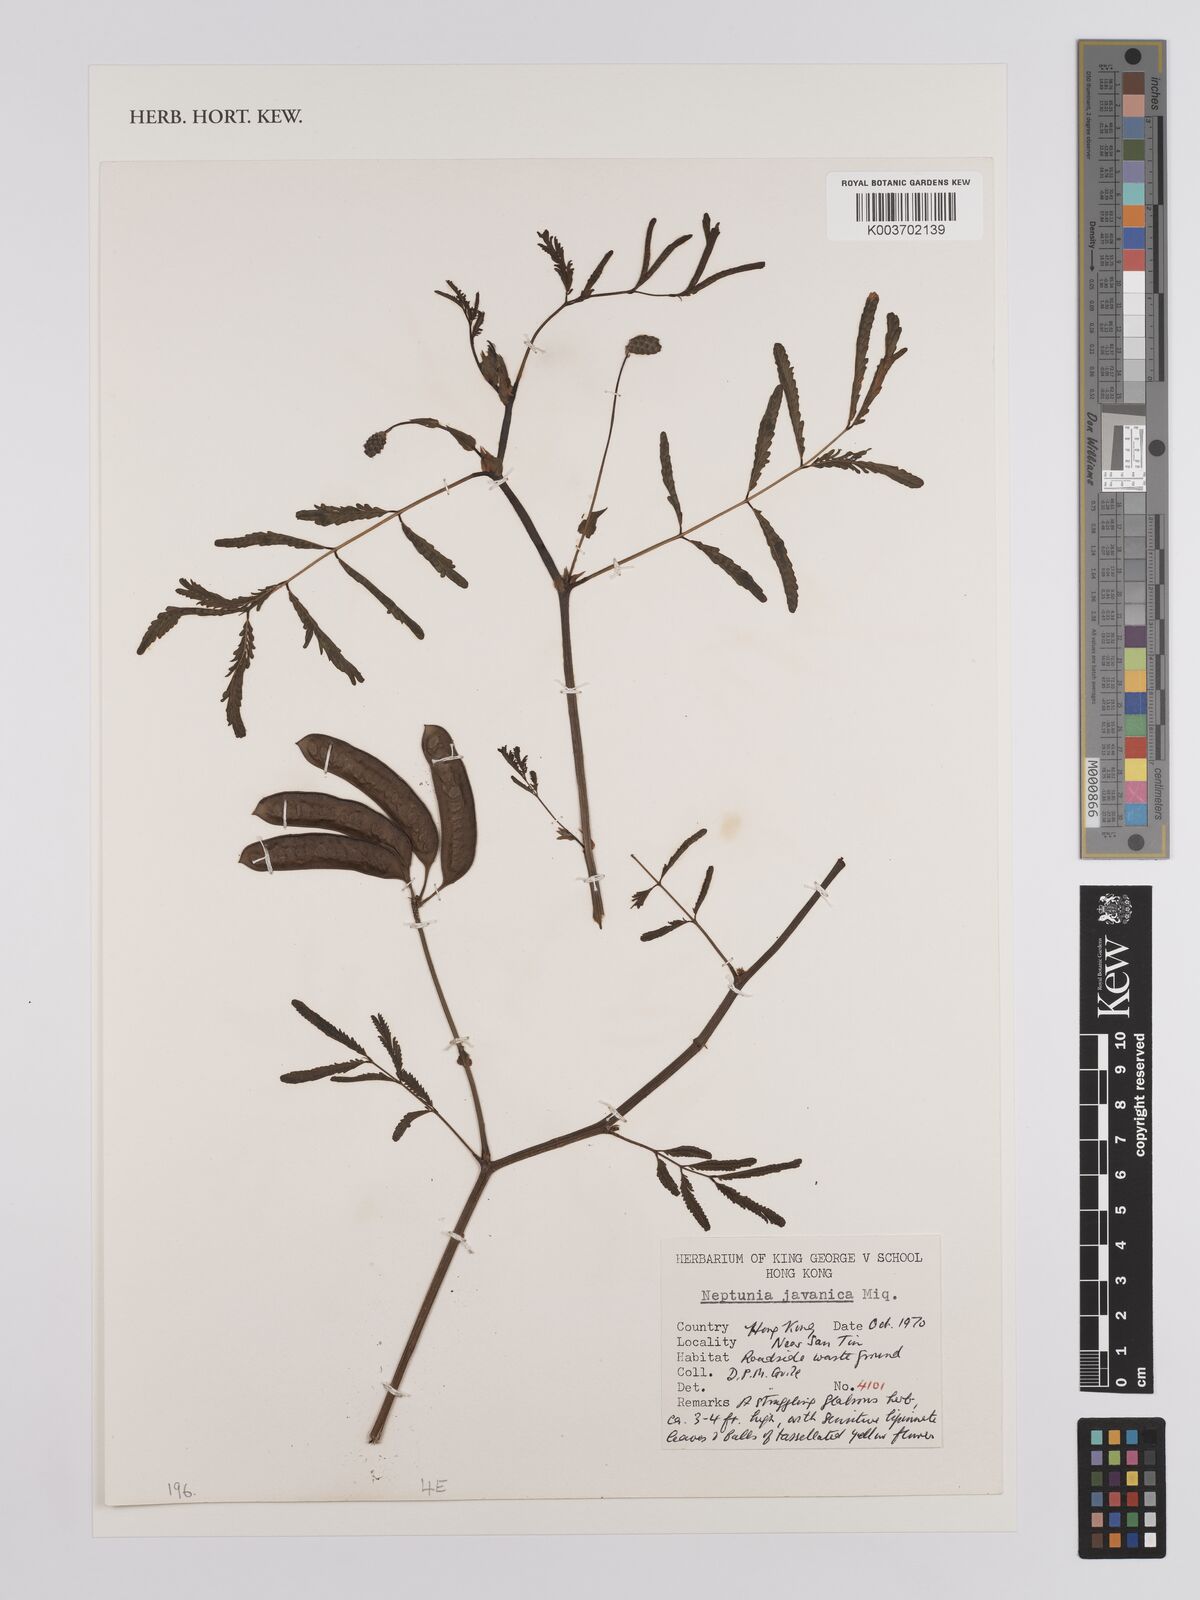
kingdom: Plantae
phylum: Tracheophyta
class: Magnoliopsida
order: Fabales
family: Fabaceae
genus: Neptunia
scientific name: Neptunia javanica
